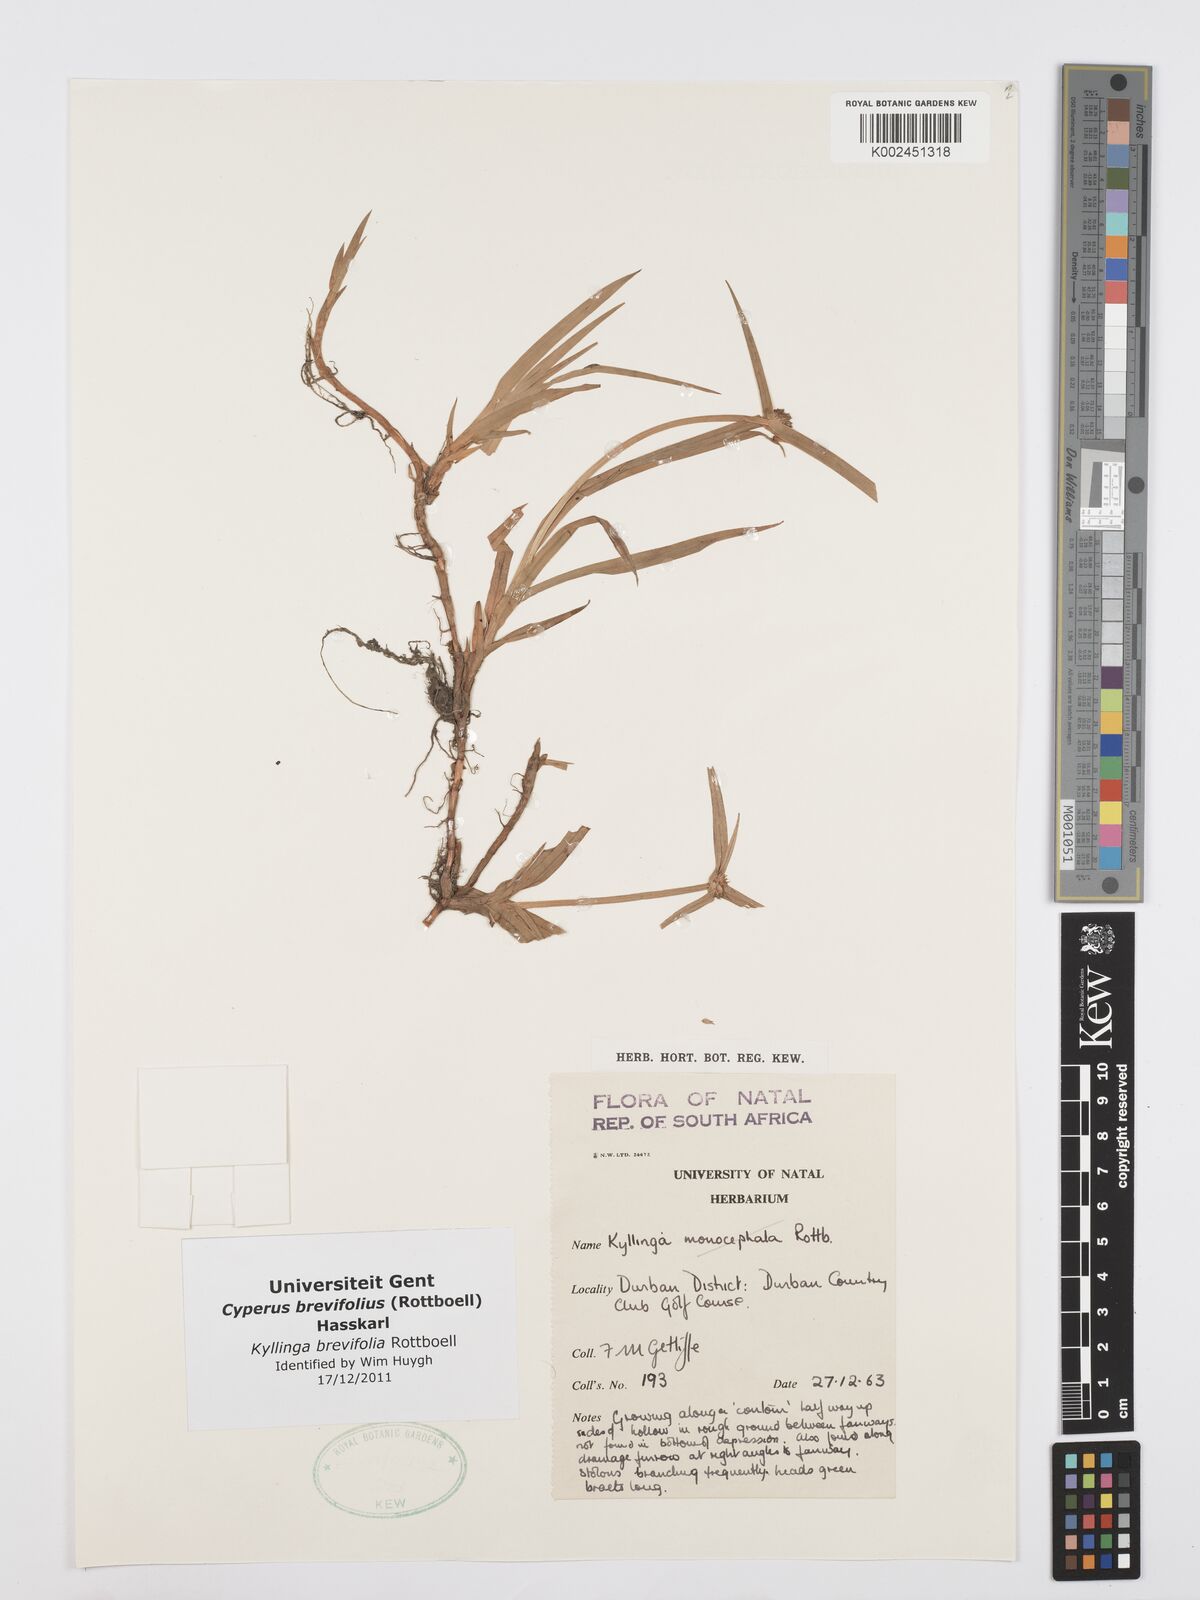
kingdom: Plantae
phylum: Tracheophyta
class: Liliopsida
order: Poales
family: Cyperaceae
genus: Cyperus
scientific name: Cyperus brevifolius
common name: Globe kyllinga
